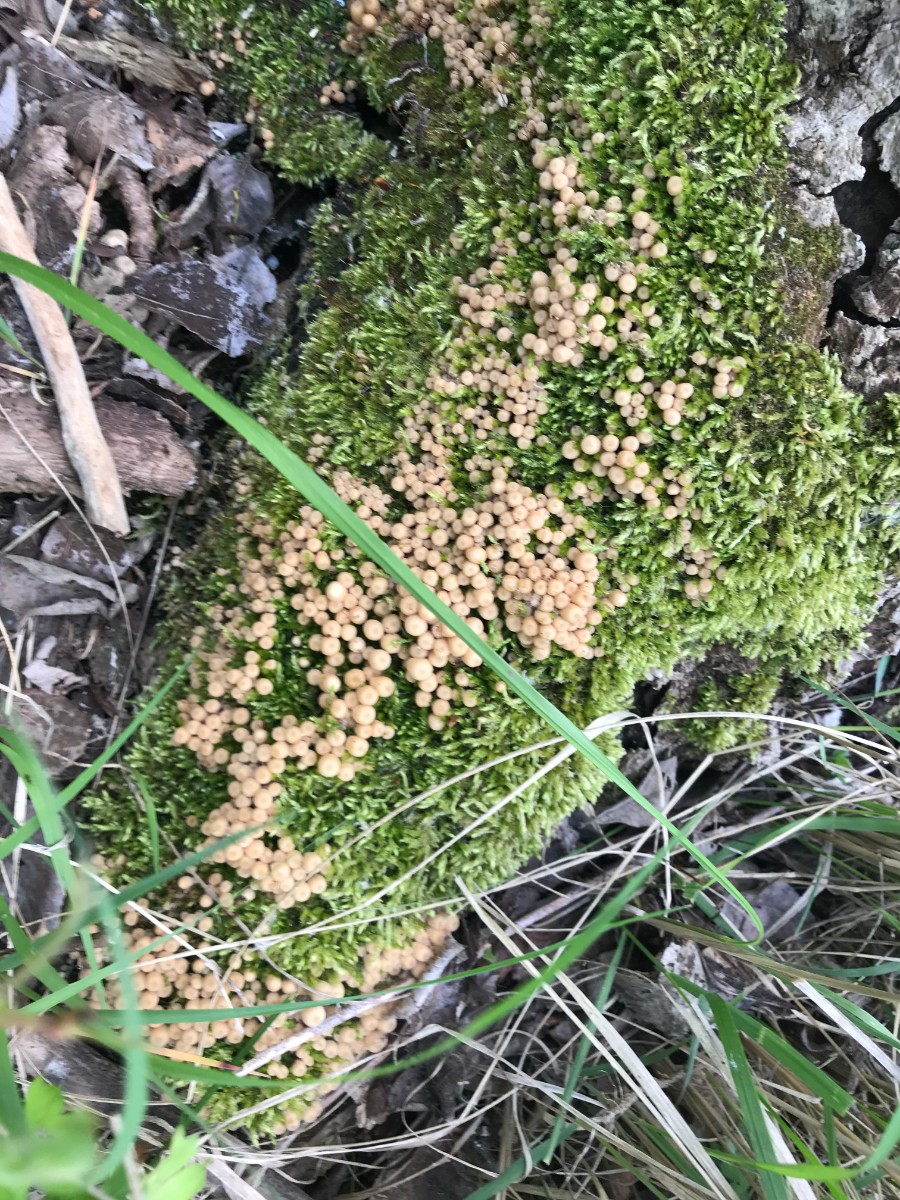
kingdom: Fungi
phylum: Basidiomycota
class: Agaricomycetes
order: Agaricales
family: Psathyrellaceae
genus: Coprinellus
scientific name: Coprinellus disseminatus
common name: bredsået blækhat
